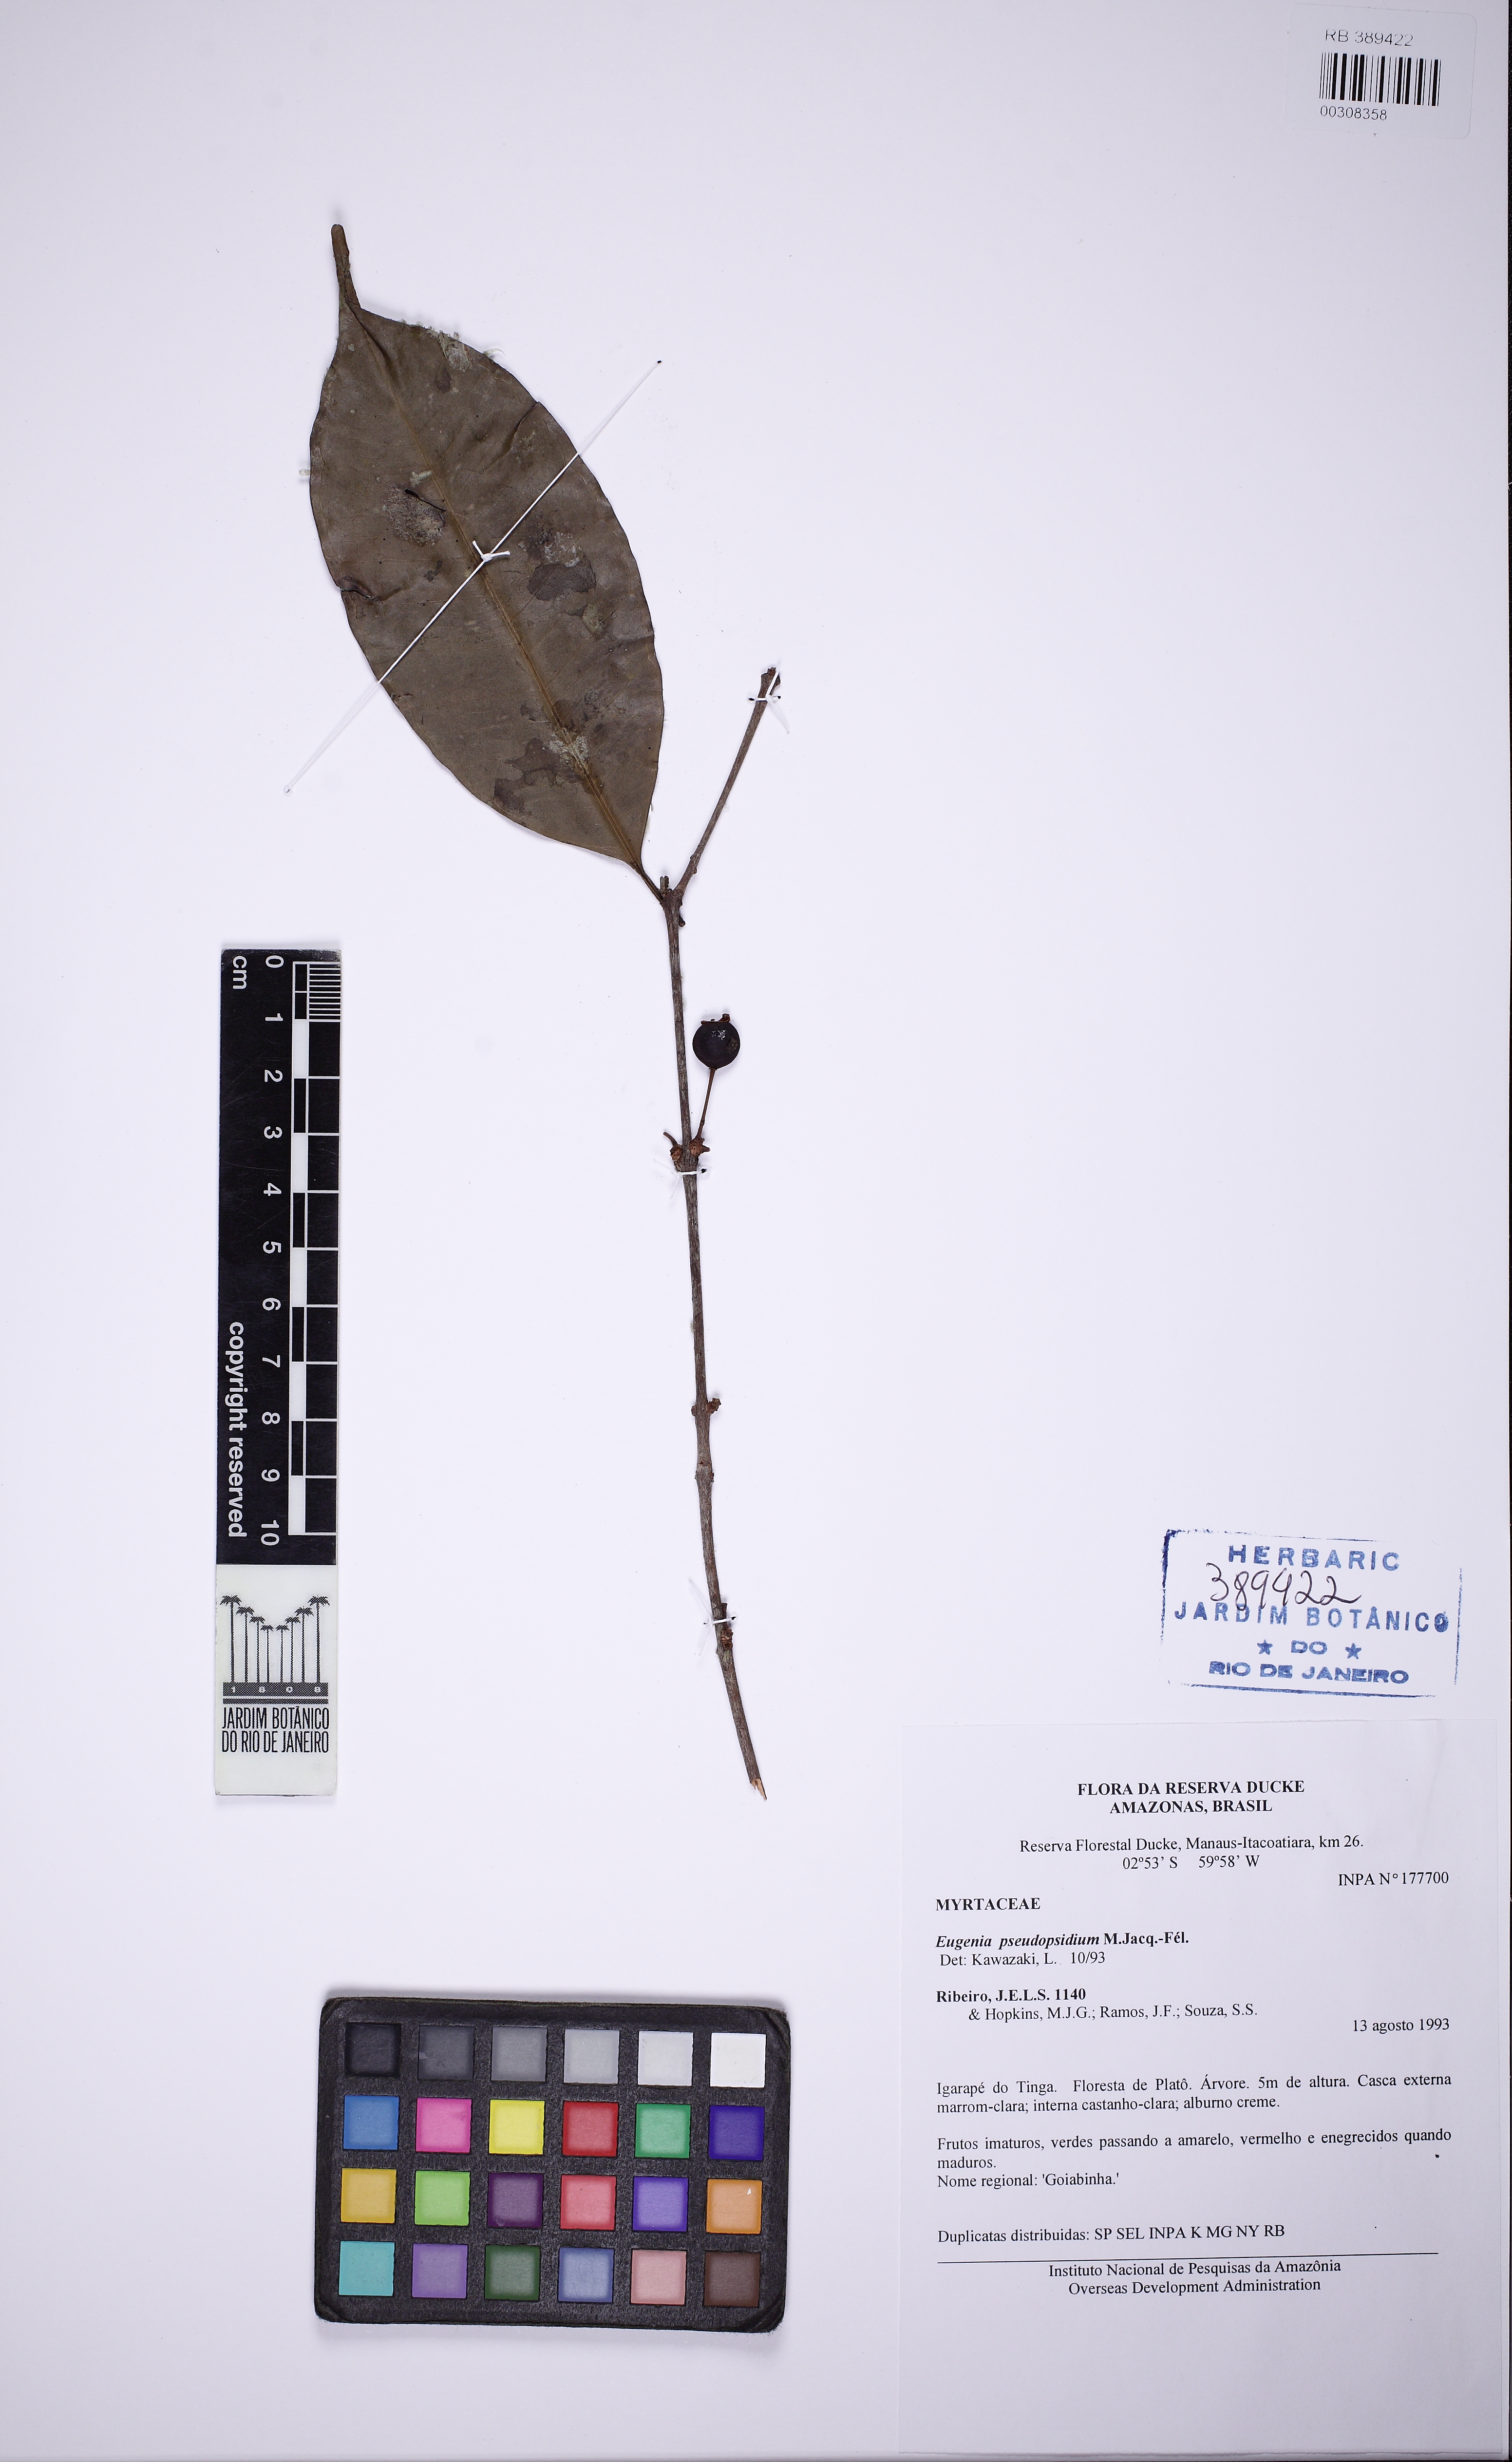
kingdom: Plantae
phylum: Tracheophyta
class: Magnoliopsida
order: Myrtales
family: Myrtaceae
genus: Eugenia
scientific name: Eugenia pseudopsidium
